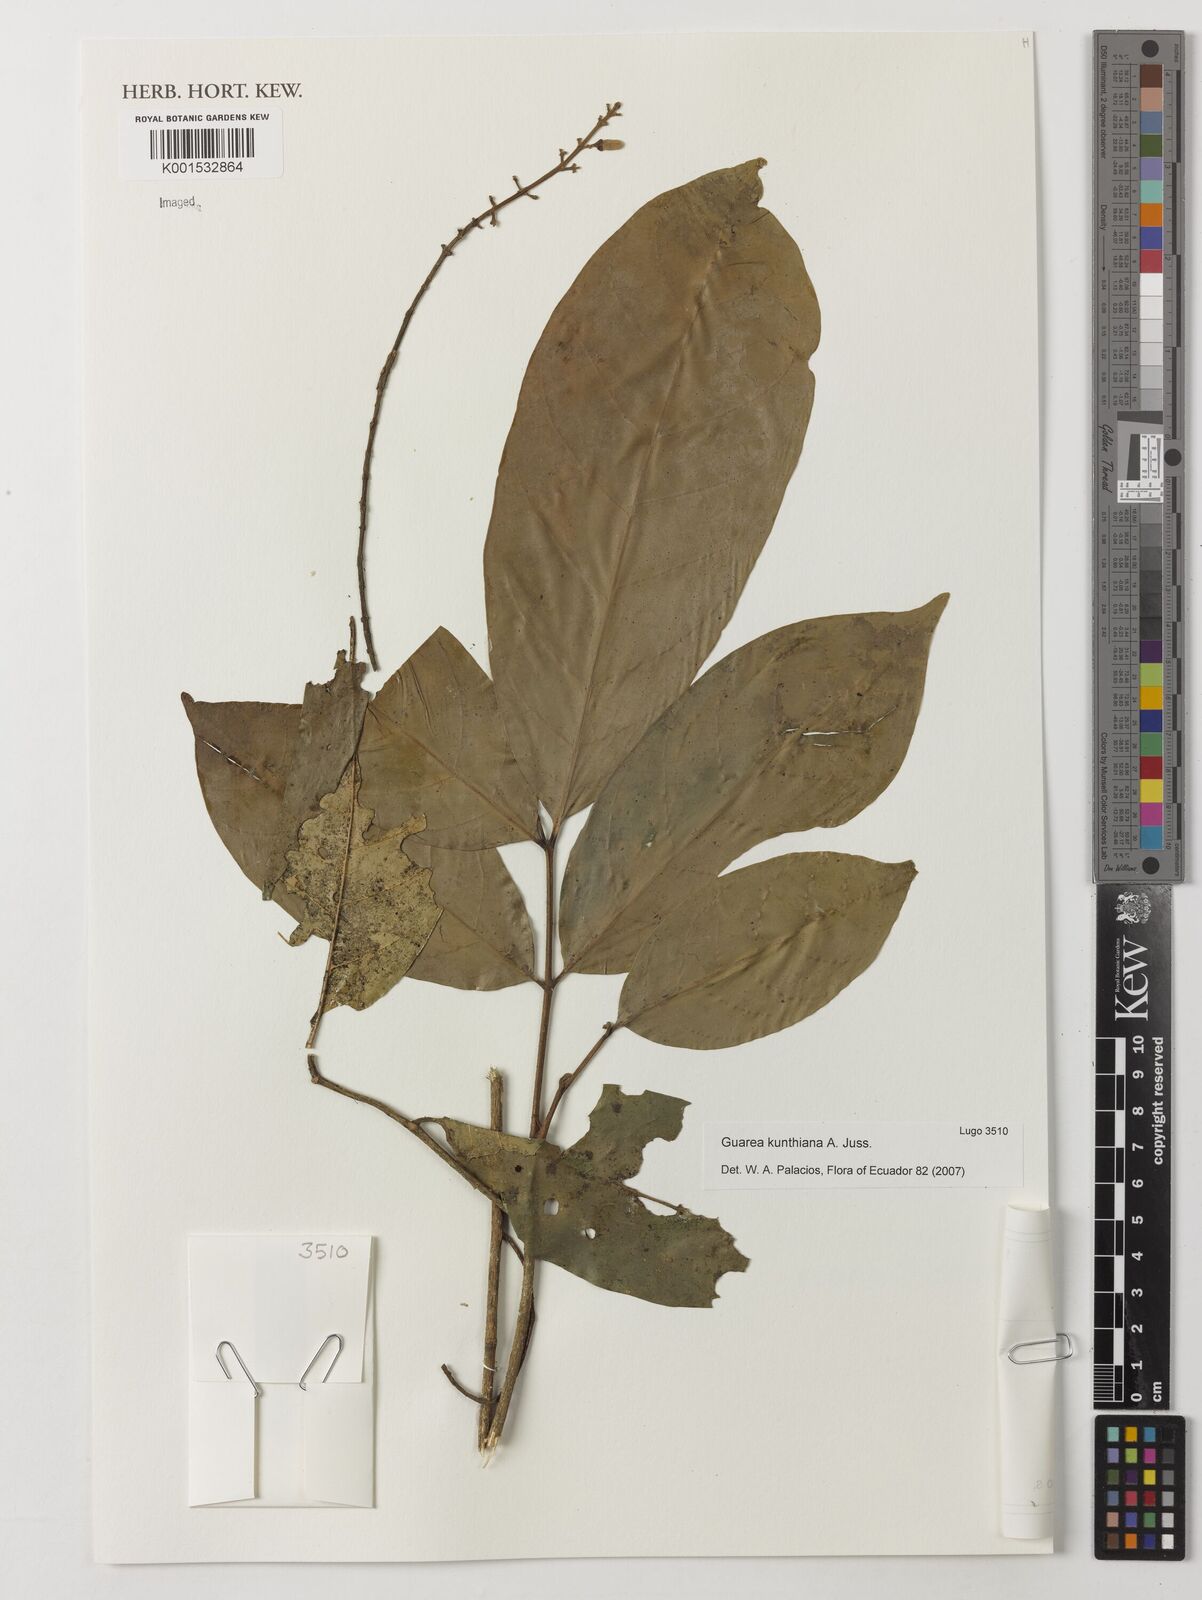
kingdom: Plantae
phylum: Tracheophyta
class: Magnoliopsida
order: Sapindales
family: Meliaceae
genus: Guarea
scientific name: Guarea kunthiana
